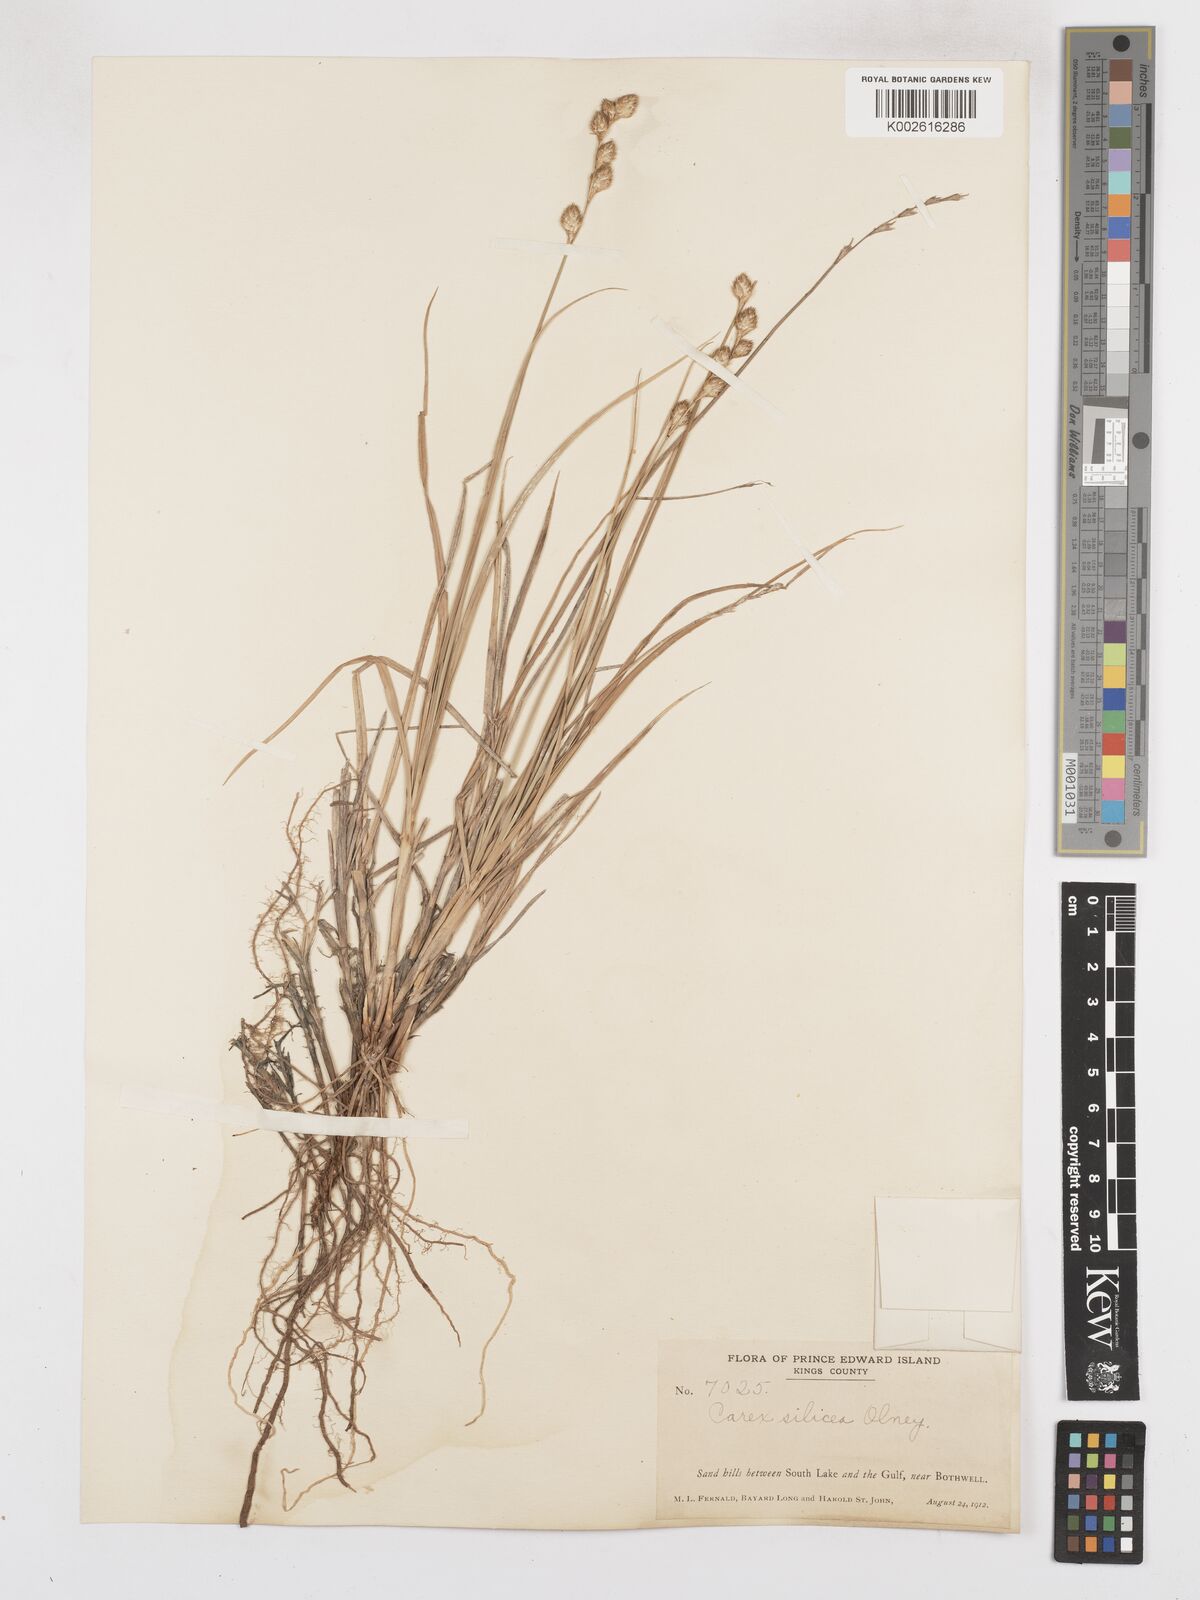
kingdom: Plantae
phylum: Tracheophyta
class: Liliopsida
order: Poales
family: Cyperaceae
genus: Carex
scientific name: Carex silicea
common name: Beach sedge
